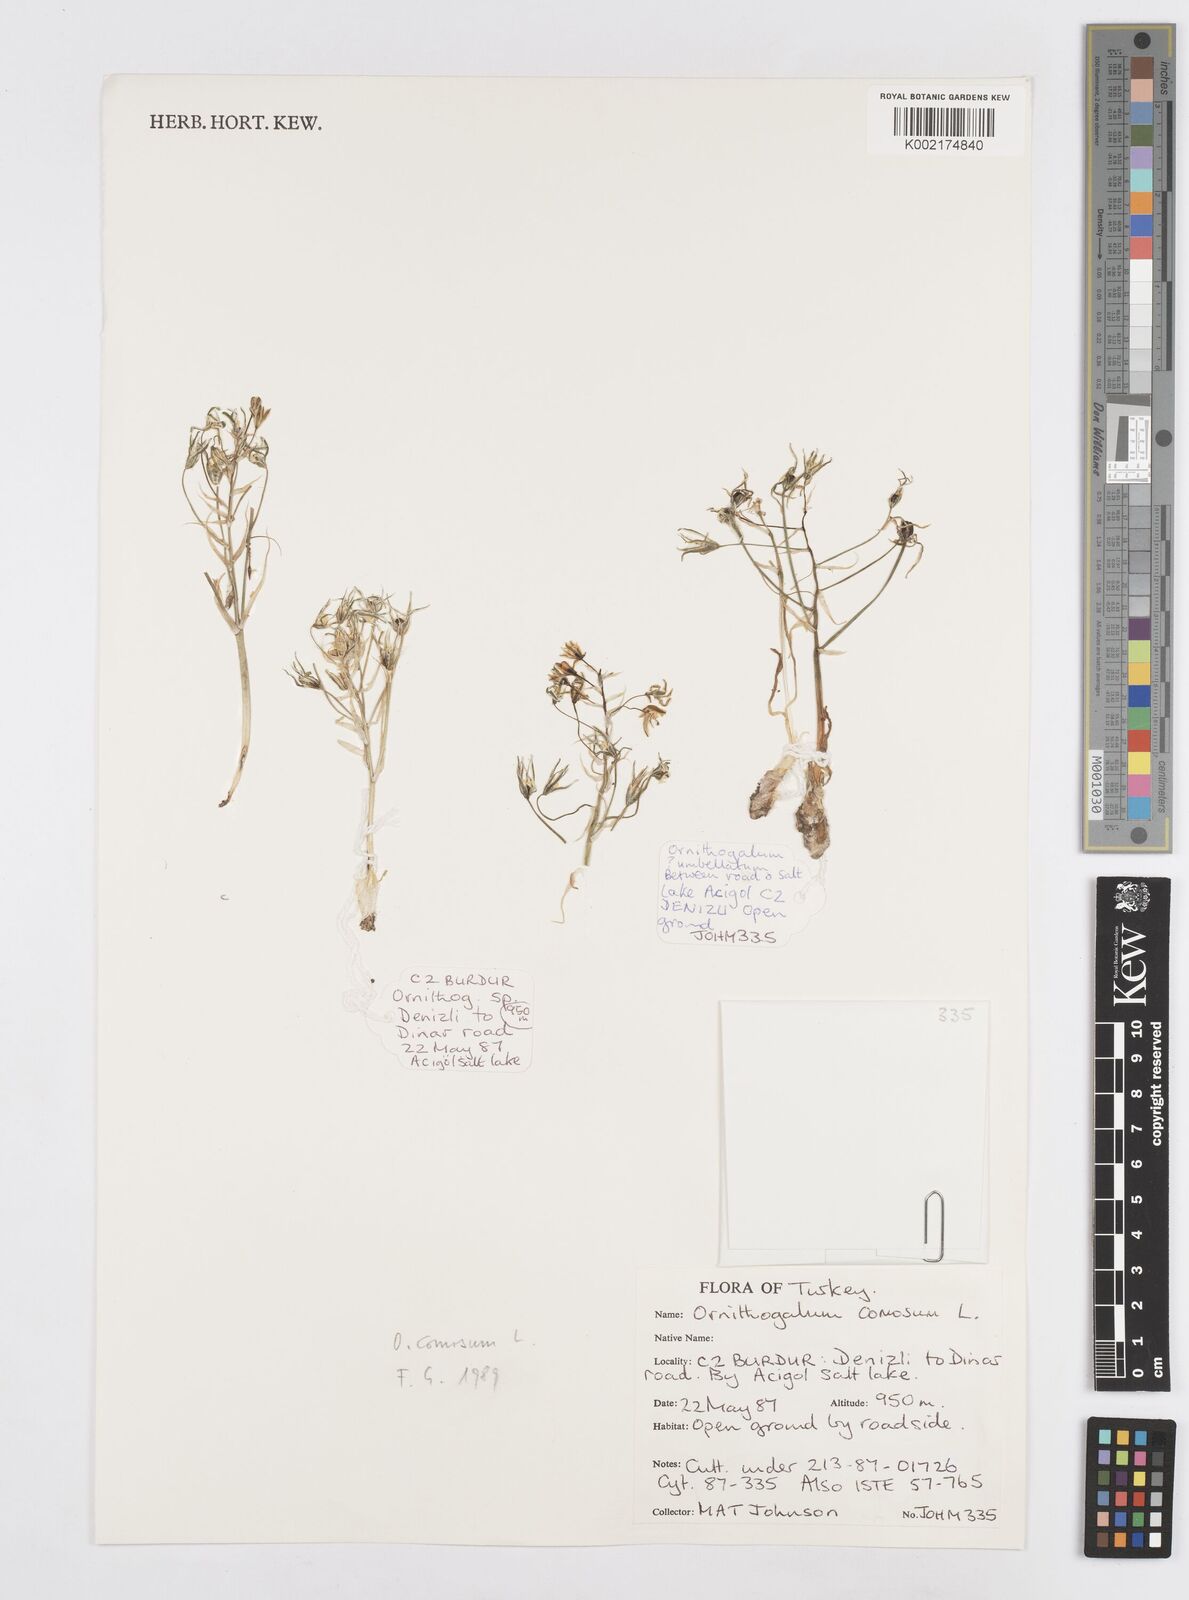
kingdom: Plantae
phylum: Tracheophyta
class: Liliopsida
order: Asparagales
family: Asparagaceae
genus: Ornithogalum
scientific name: Ornithogalum comosum
